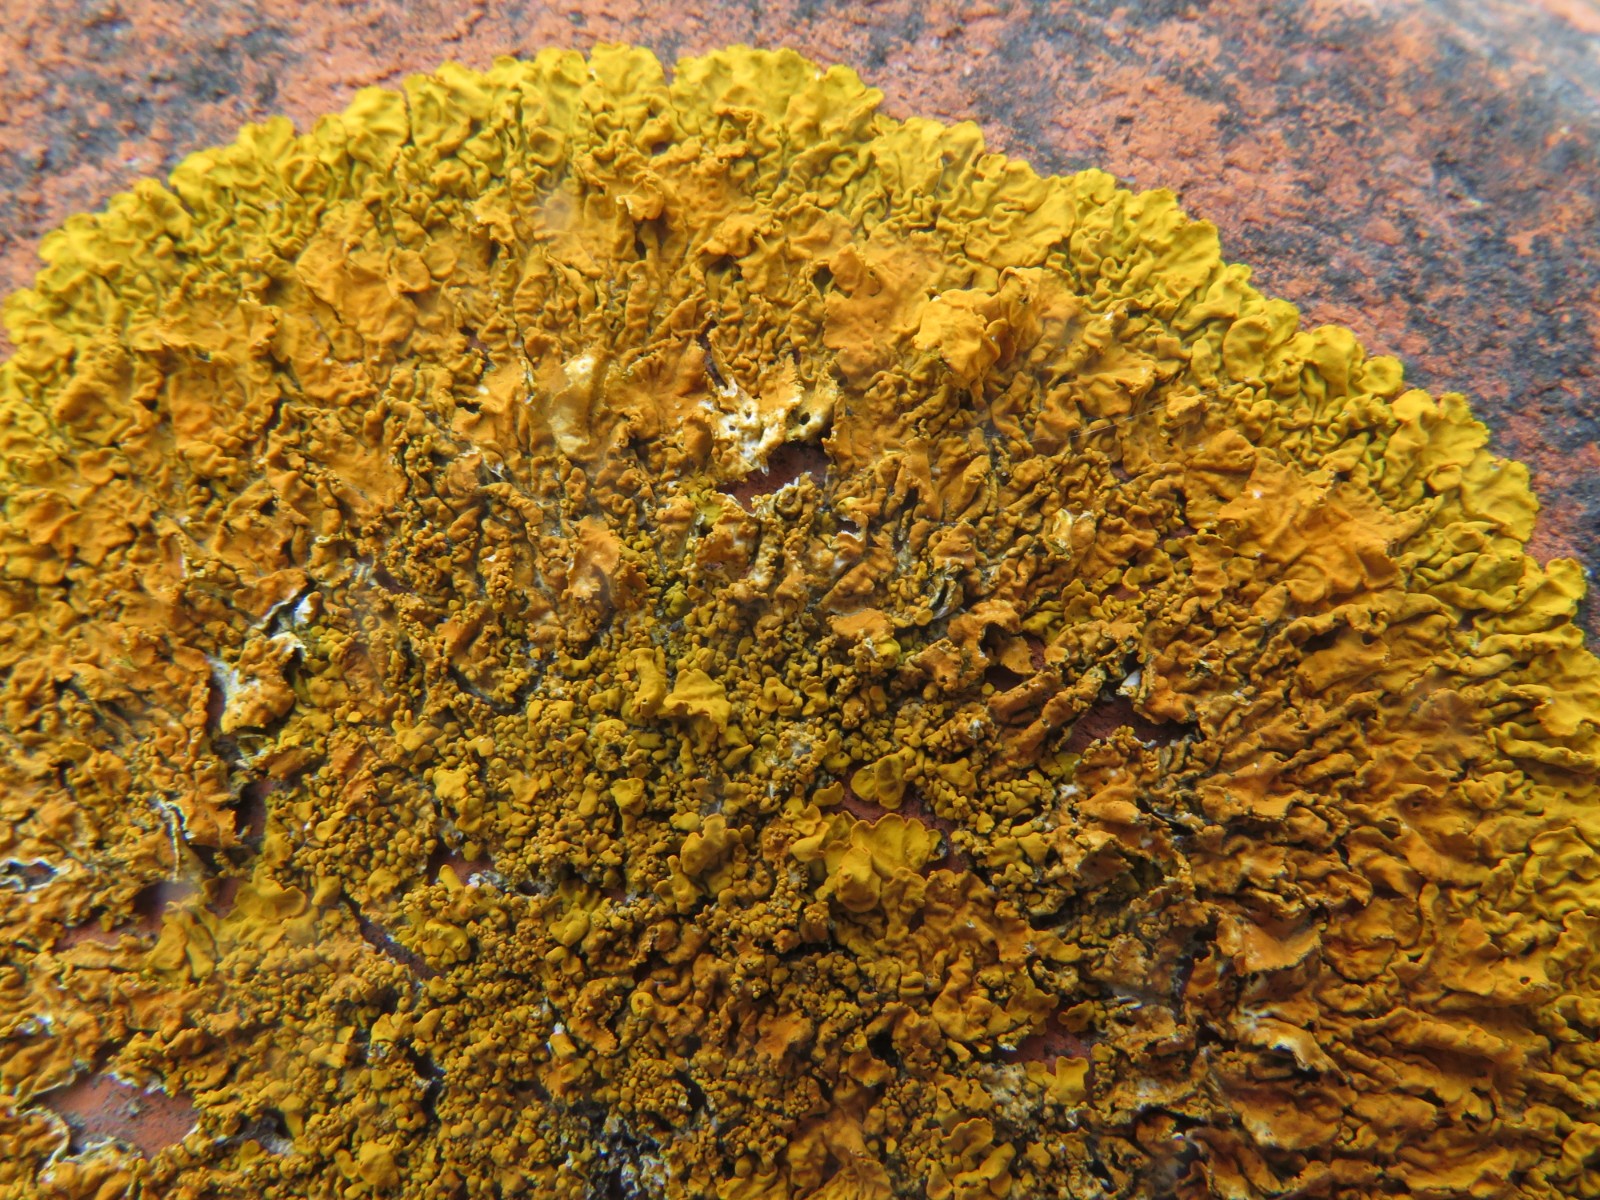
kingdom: Fungi
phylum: Ascomycota
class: Lecanoromycetes
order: Teloschistales
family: Teloschistaceae
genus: Xanthoria
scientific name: Xanthoria calcicola
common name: vortet væggelav
